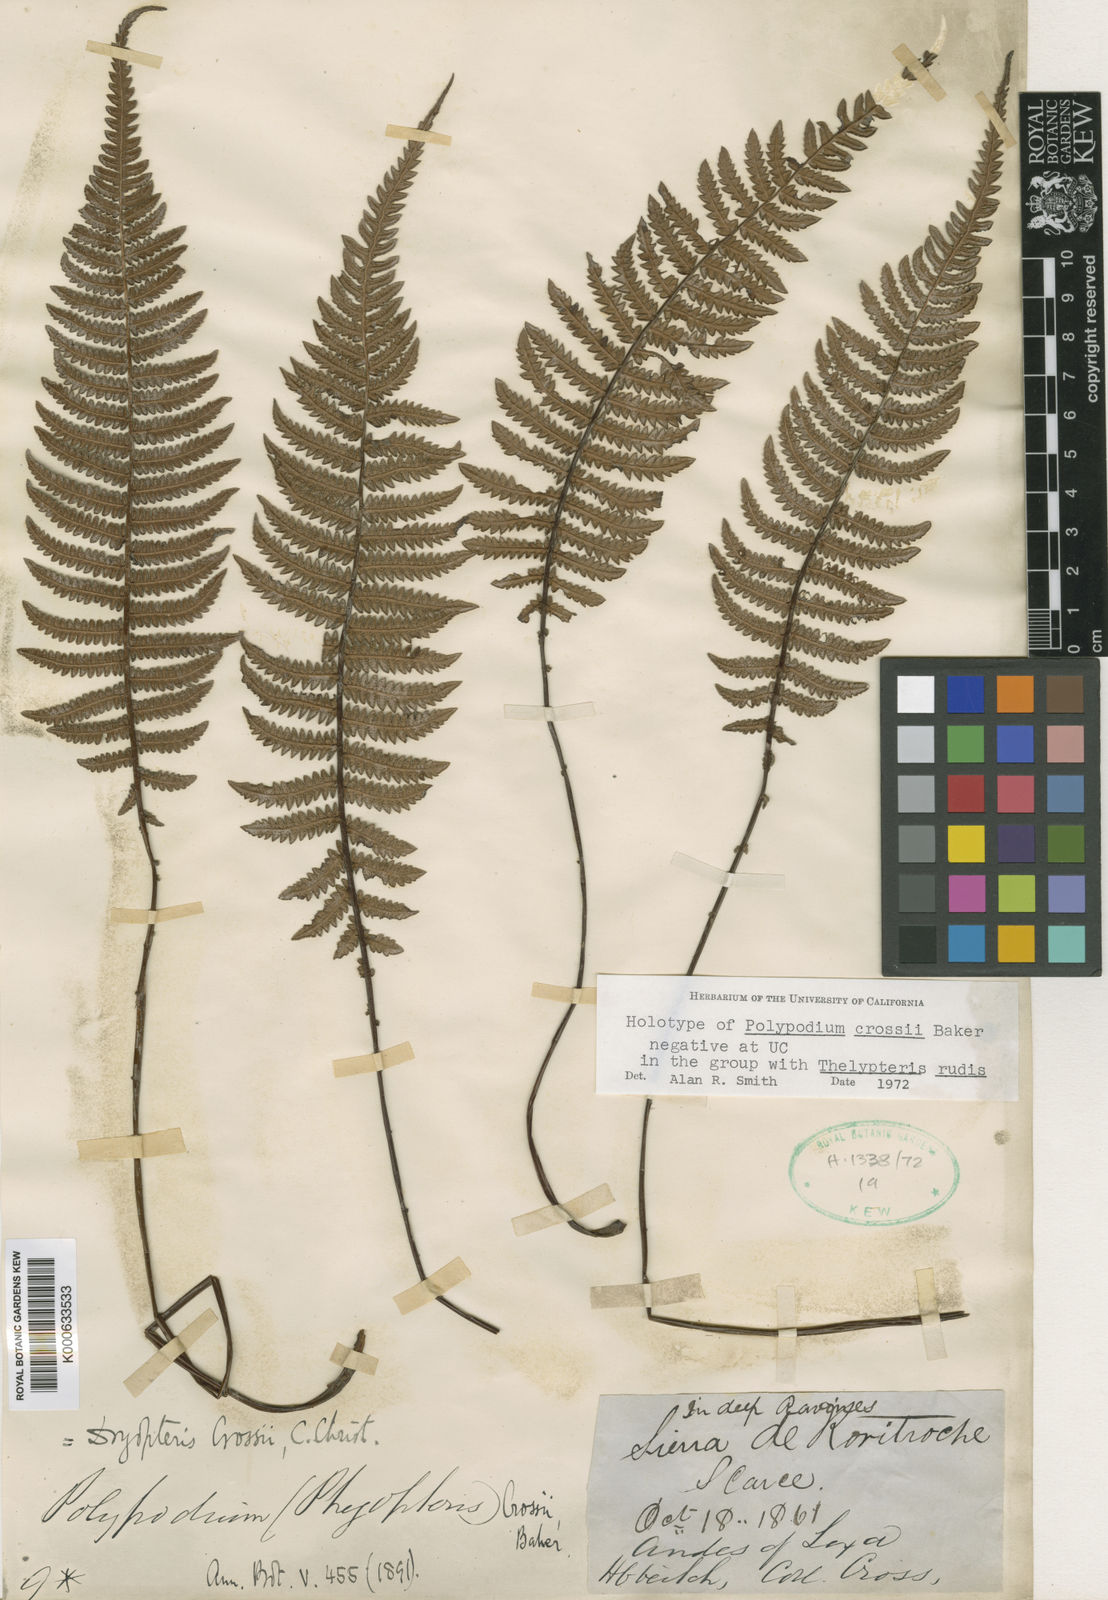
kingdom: Plantae
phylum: Tracheophyta
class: Polypodiopsida
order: Polypodiales
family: Thelypteridaceae
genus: Amauropelta
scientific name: Amauropelta
